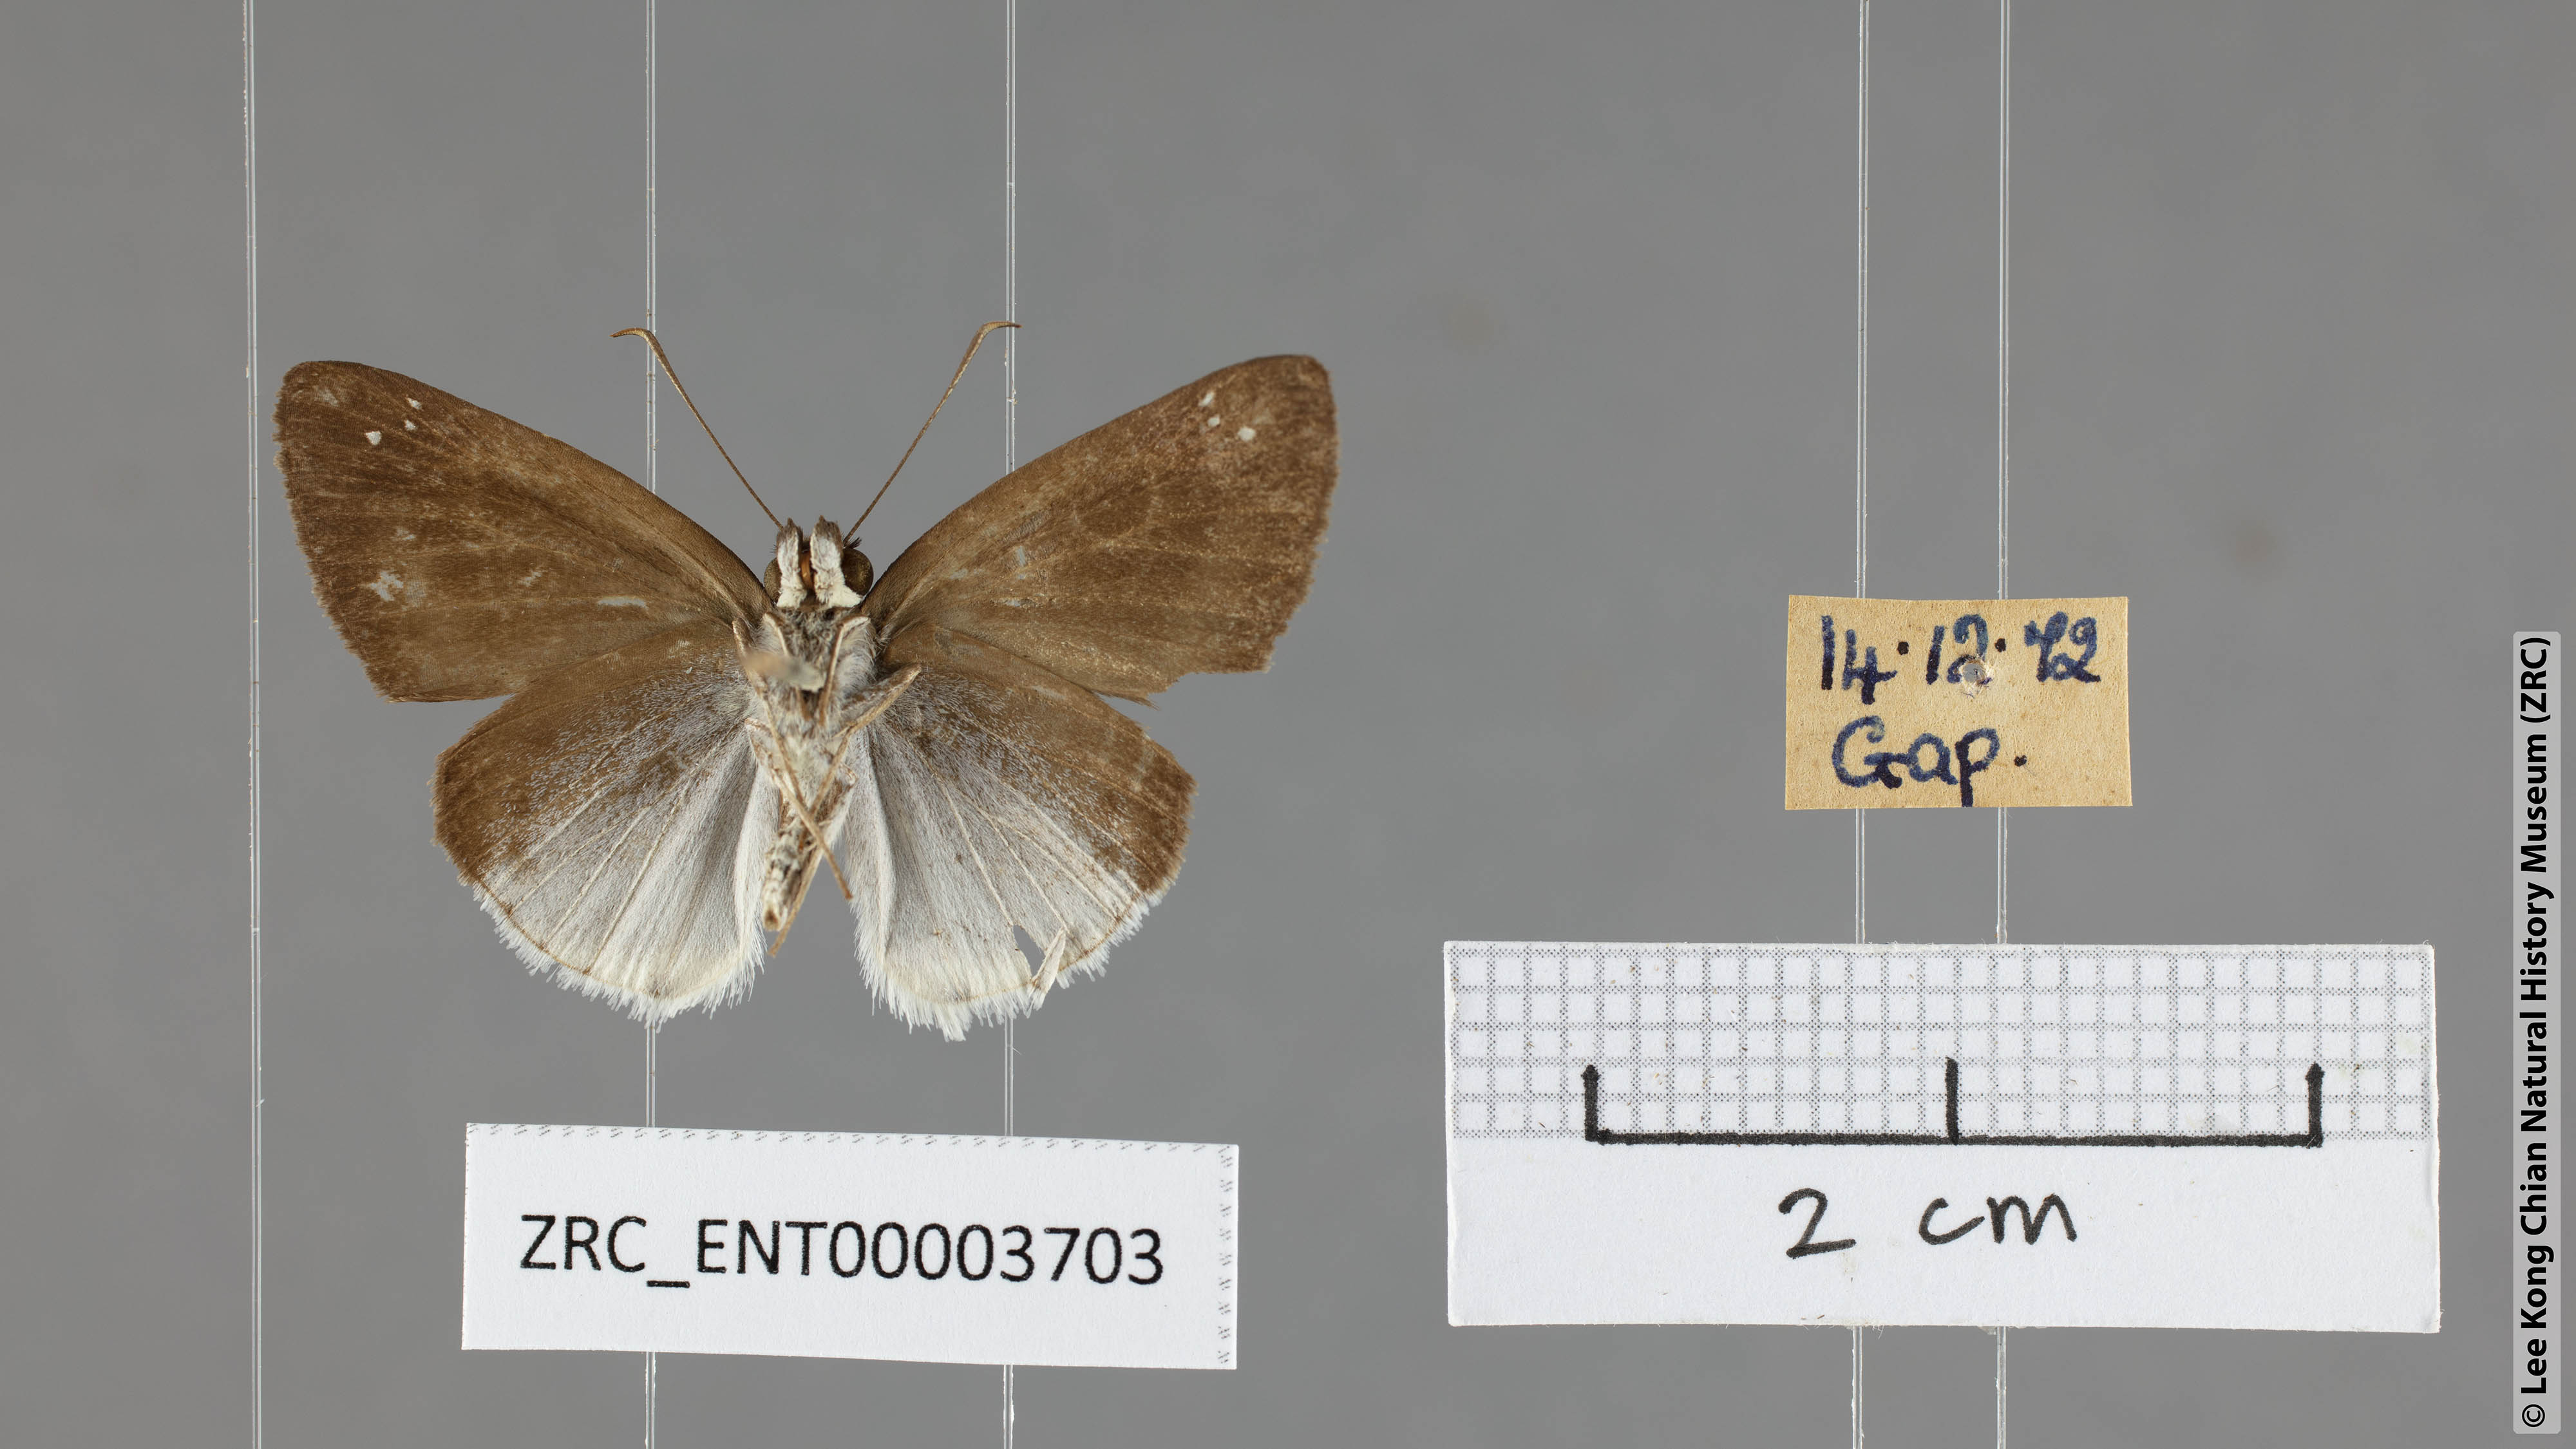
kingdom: Animalia
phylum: Arthropoda
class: Insecta
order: Lepidoptera
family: Hesperiidae
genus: Tagiades
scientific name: Tagiades lavata
